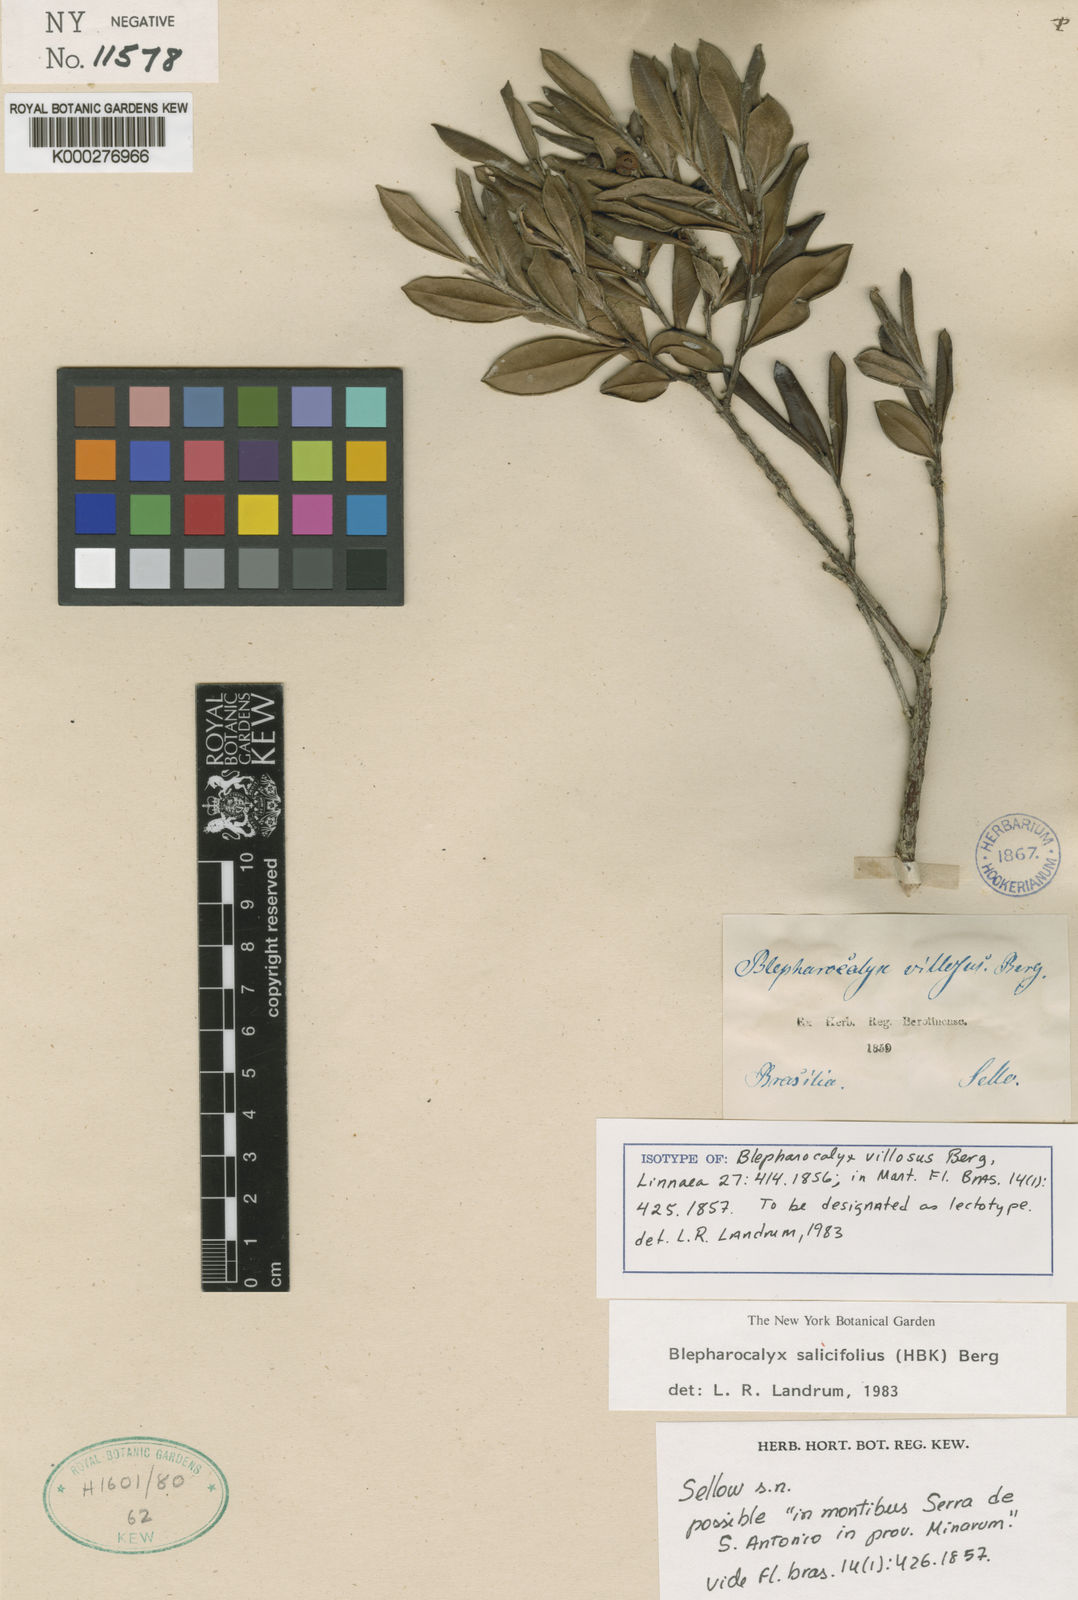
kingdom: Plantae
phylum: Tracheophyta
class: Magnoliopsida
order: Myrtales
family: Myrtaceae
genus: Blepharocalyx
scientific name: Blepharocalyx salicifolius
